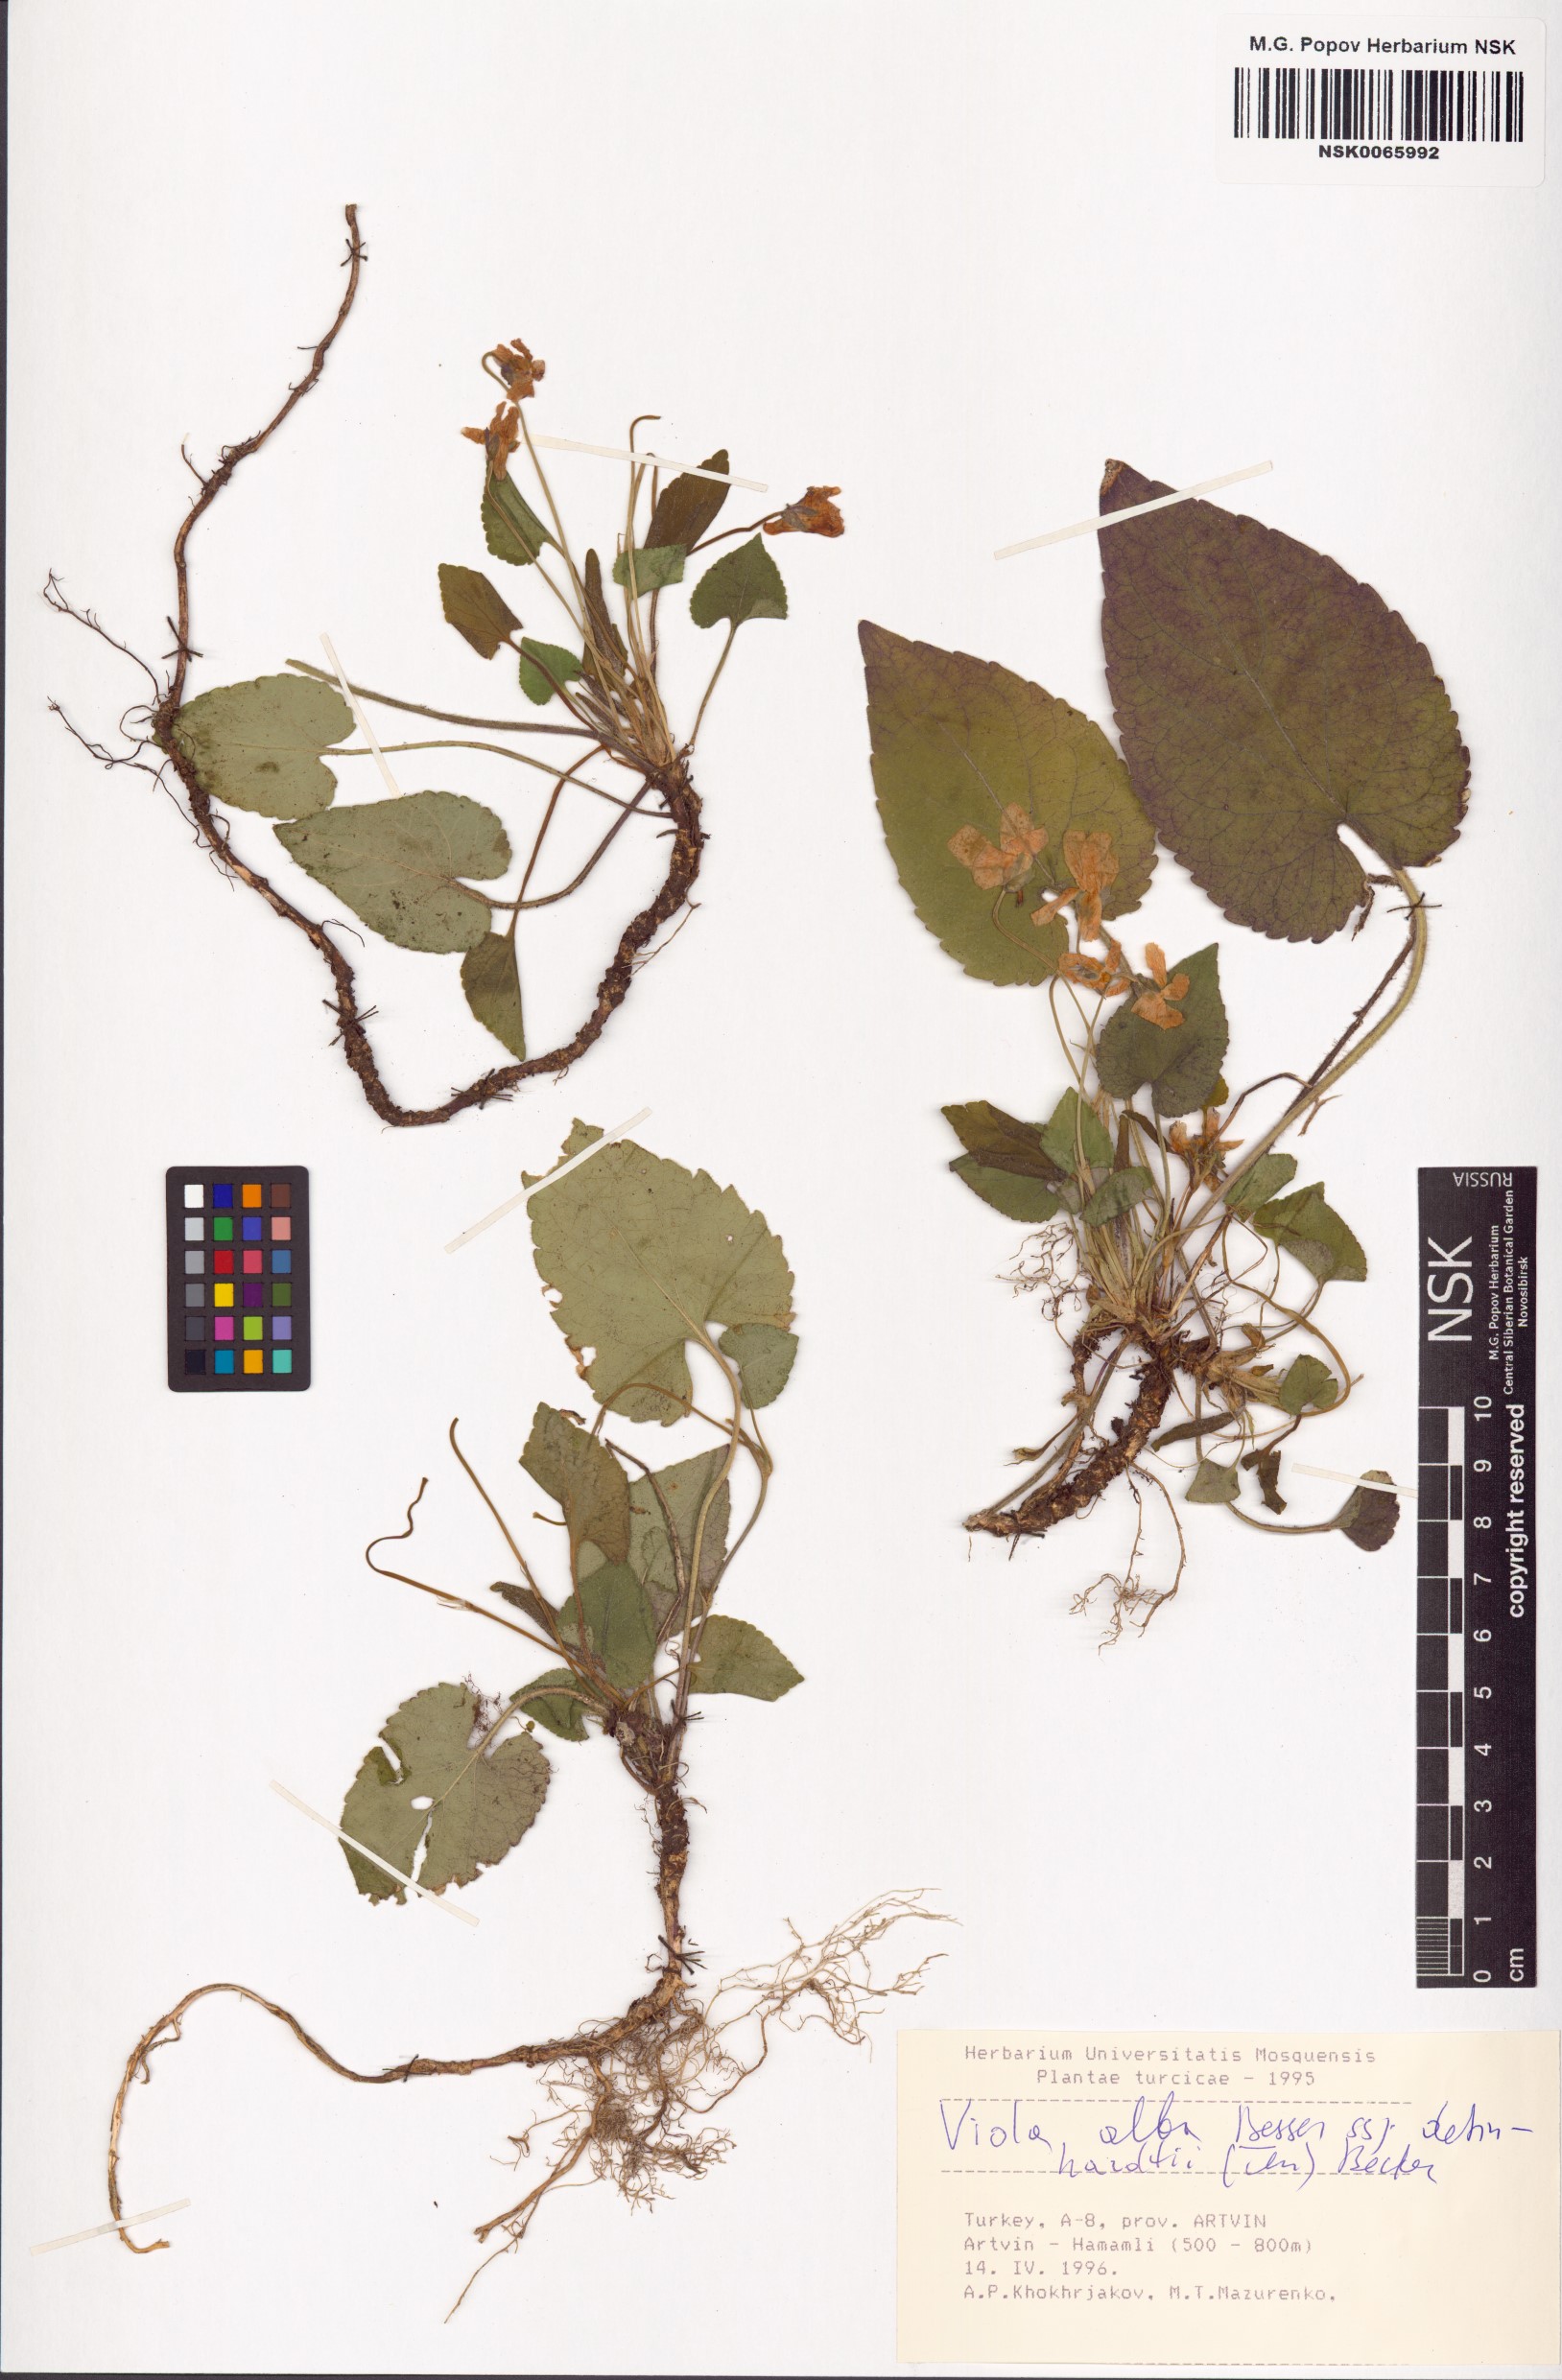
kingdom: Plantae
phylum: Tracheophyta
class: Magnoliopsida
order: Malpighiales
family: Violaceae
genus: Viola
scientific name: Viola alba
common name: White violet
